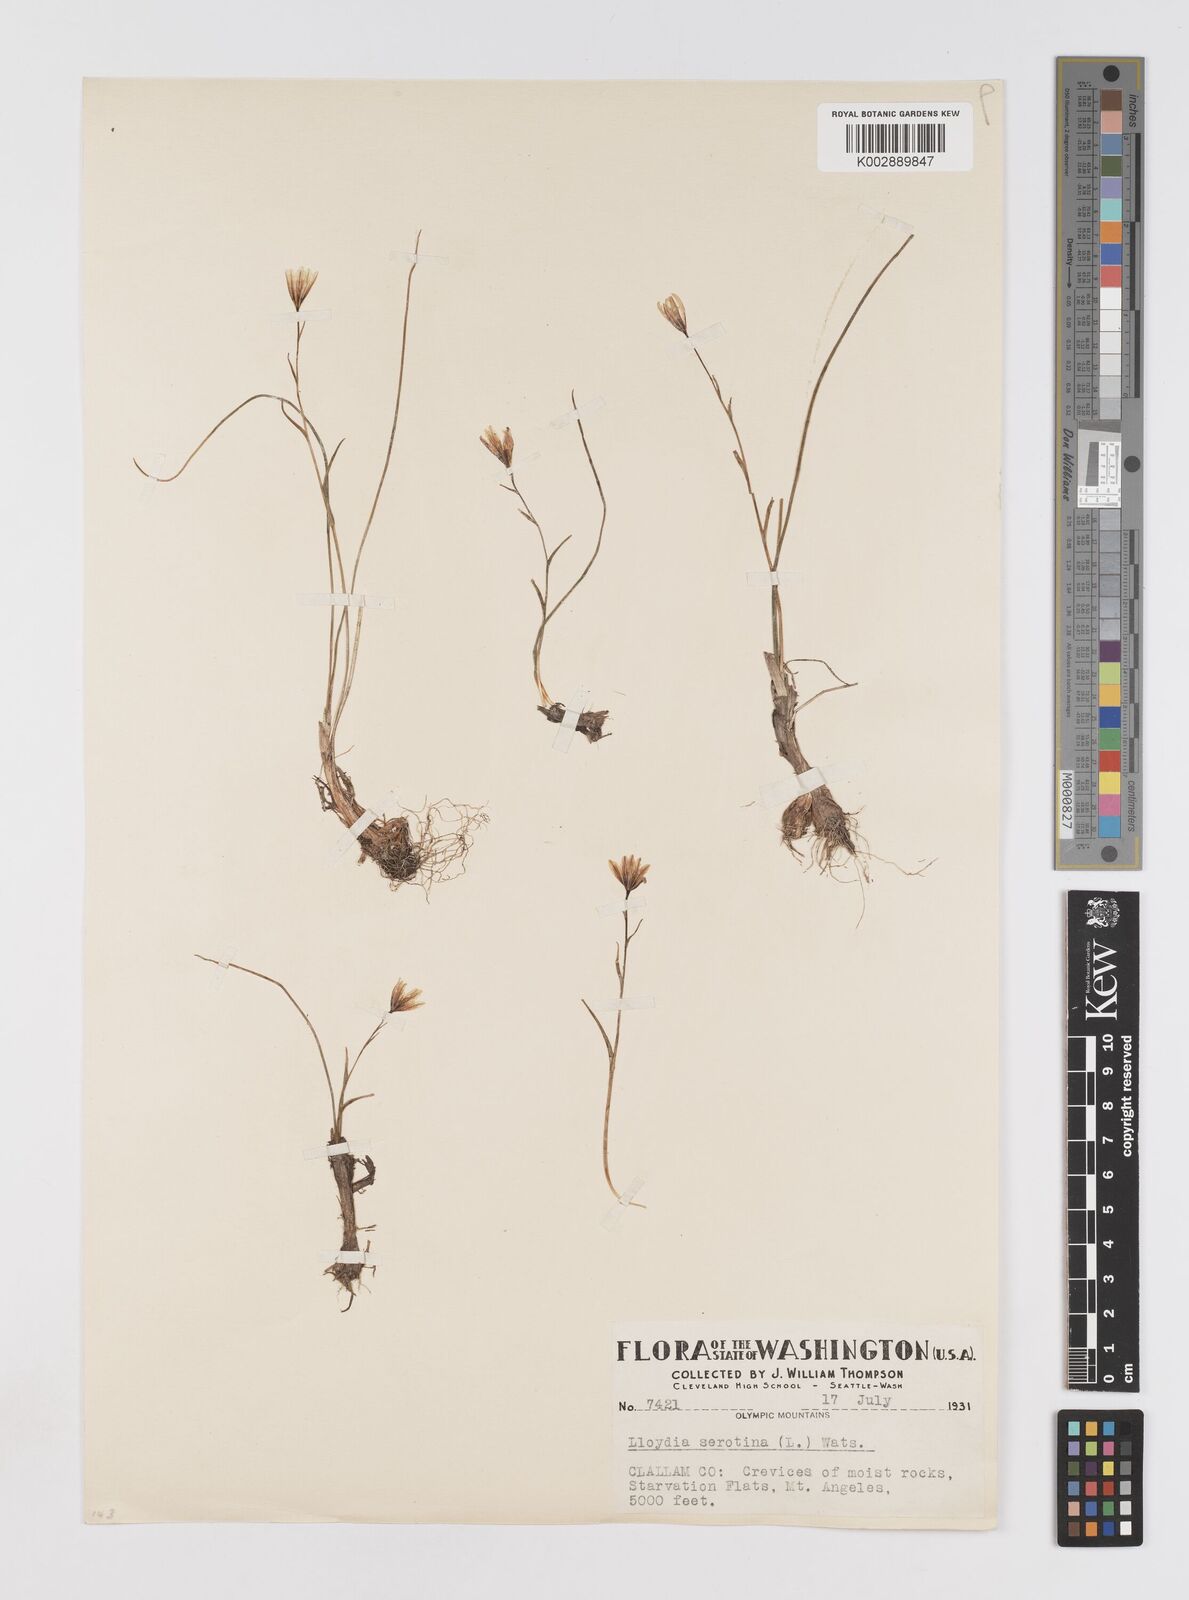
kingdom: Plantae
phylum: Tracheophyta
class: Liliopsida
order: Liliales
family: Liliaceae
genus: Gagea
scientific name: Gagea serotina
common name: Snowdon lily
